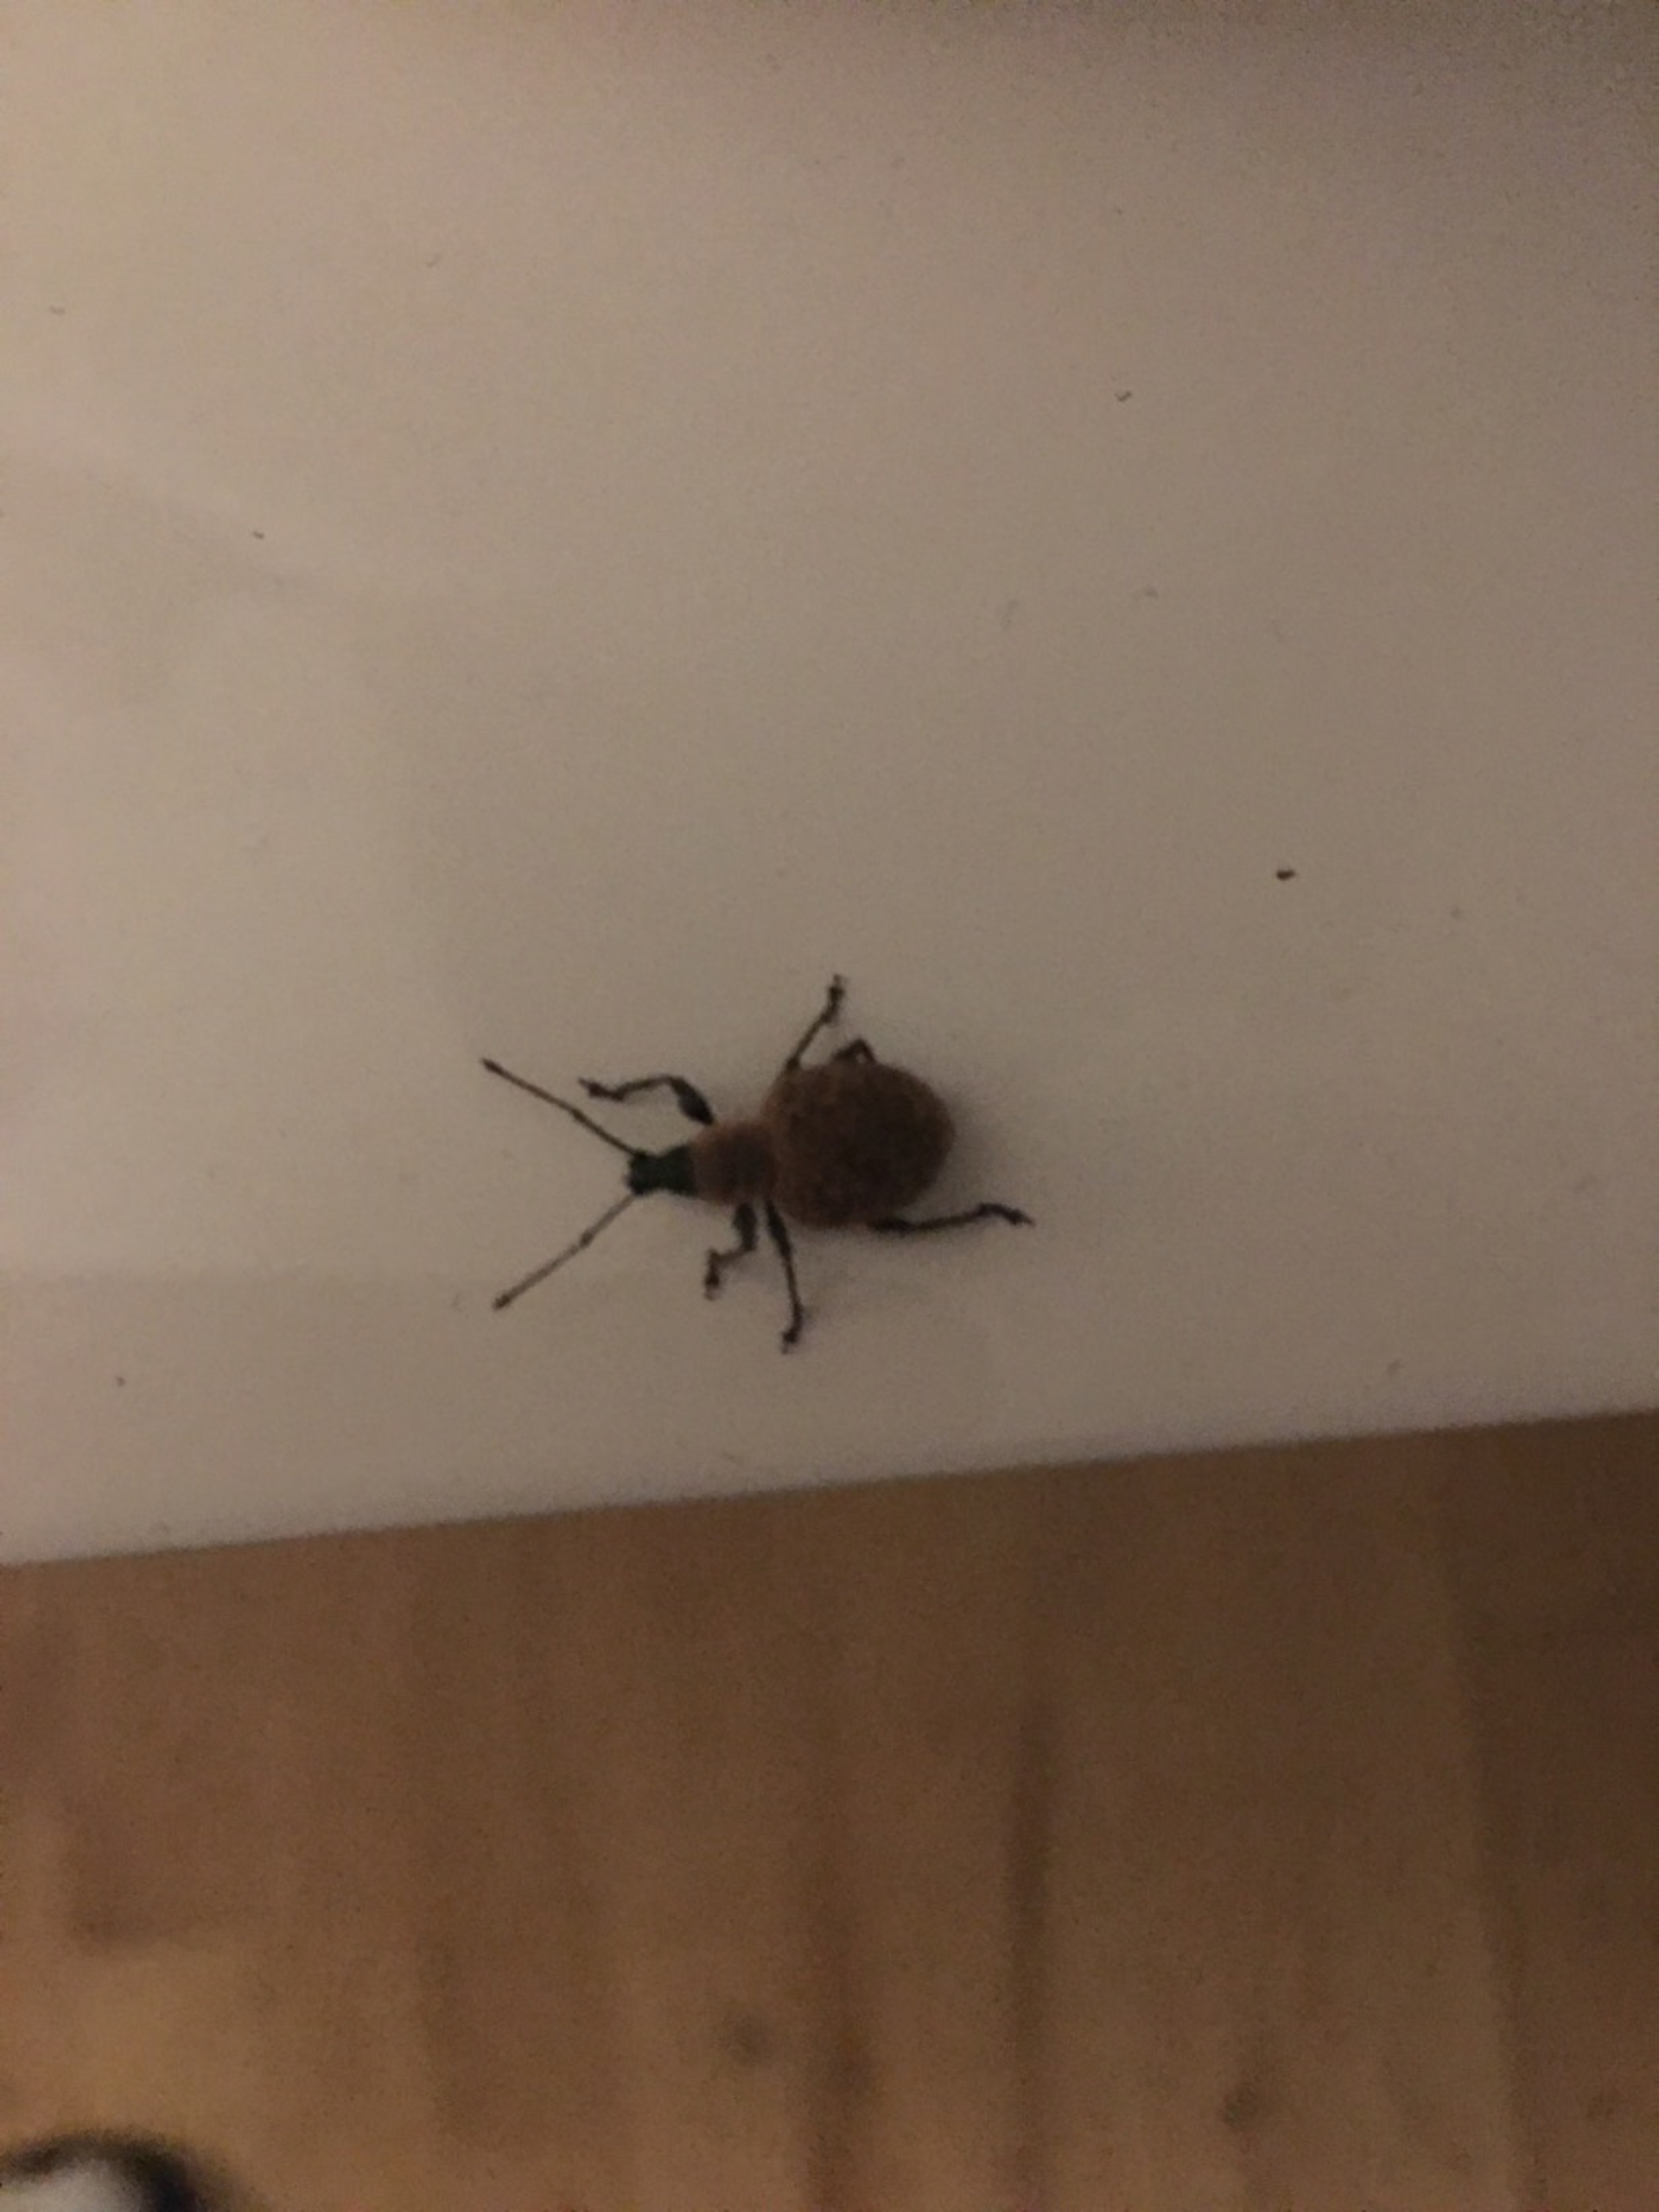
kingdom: Animalia
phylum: Arthropoda
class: Insecta
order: Coleoptera
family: Curculionidae
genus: Otiorhynchus
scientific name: Otiorhynchus
